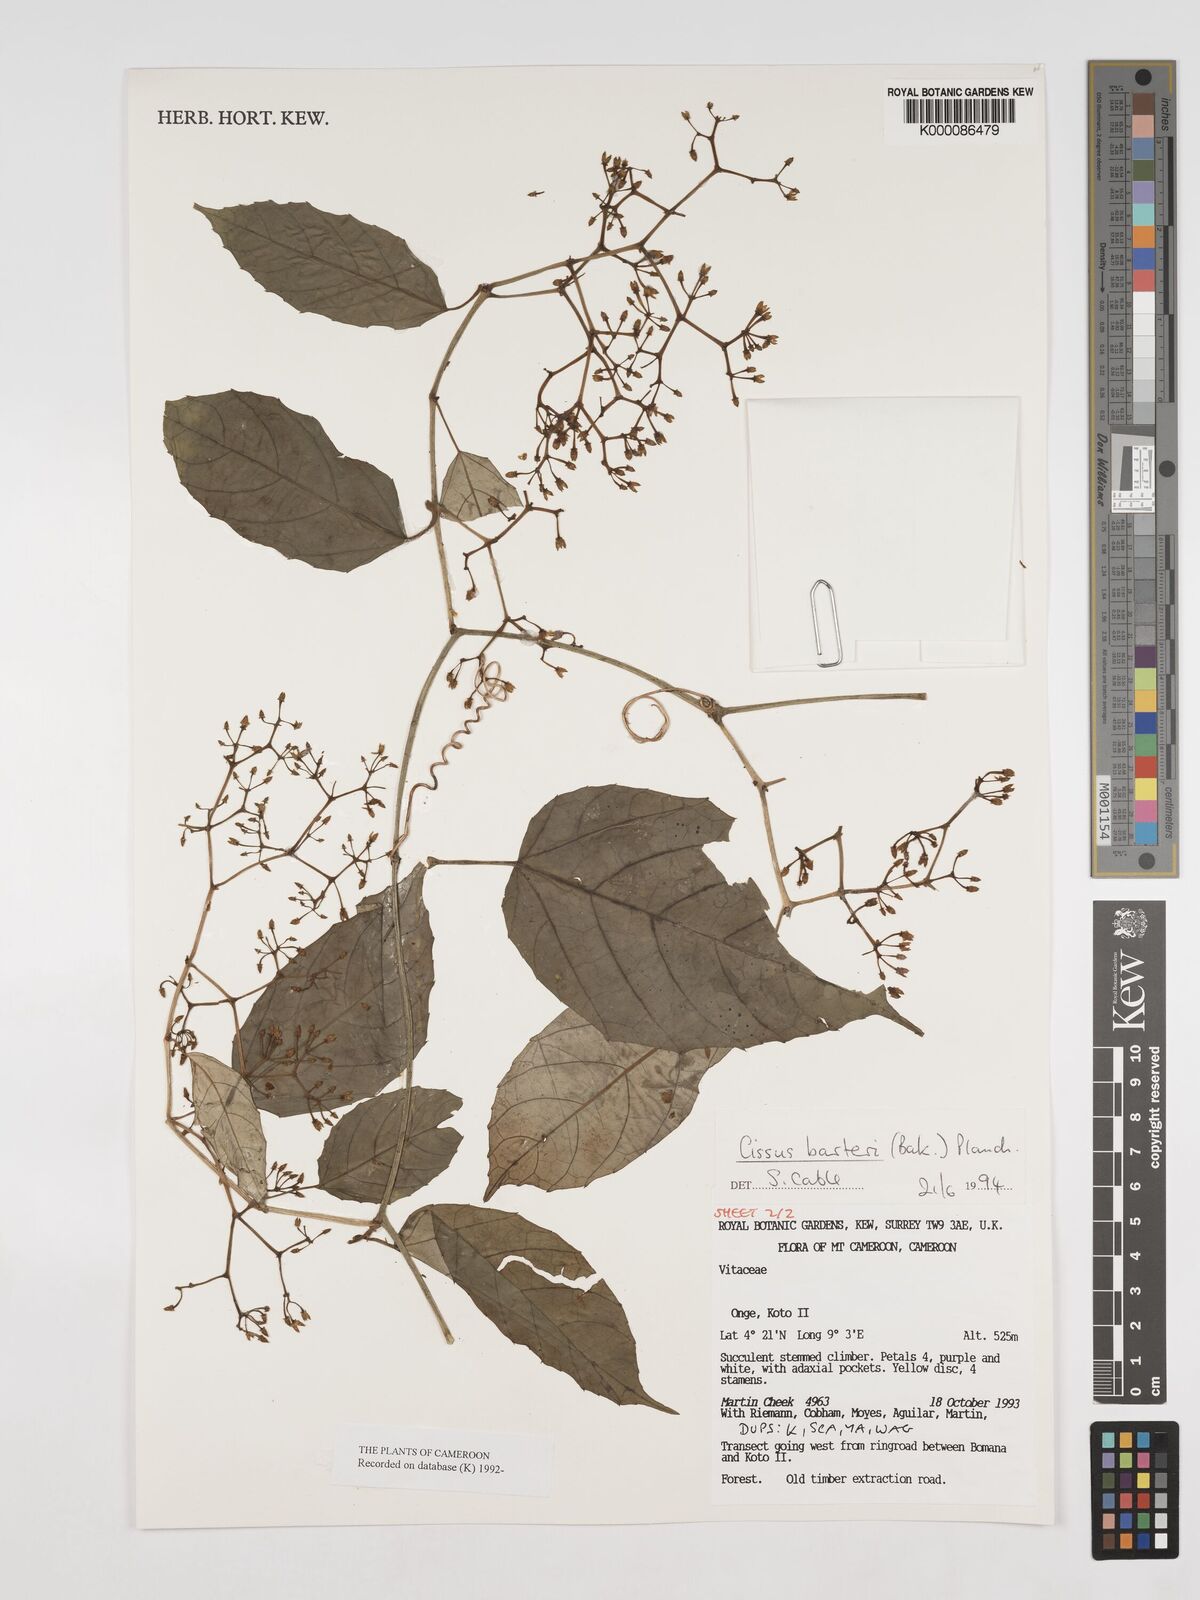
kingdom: Plantae
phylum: Tracheophyta
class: Magnoliopsida
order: Vitales
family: Vitaceae
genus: Cissus
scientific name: Cissus barteri
